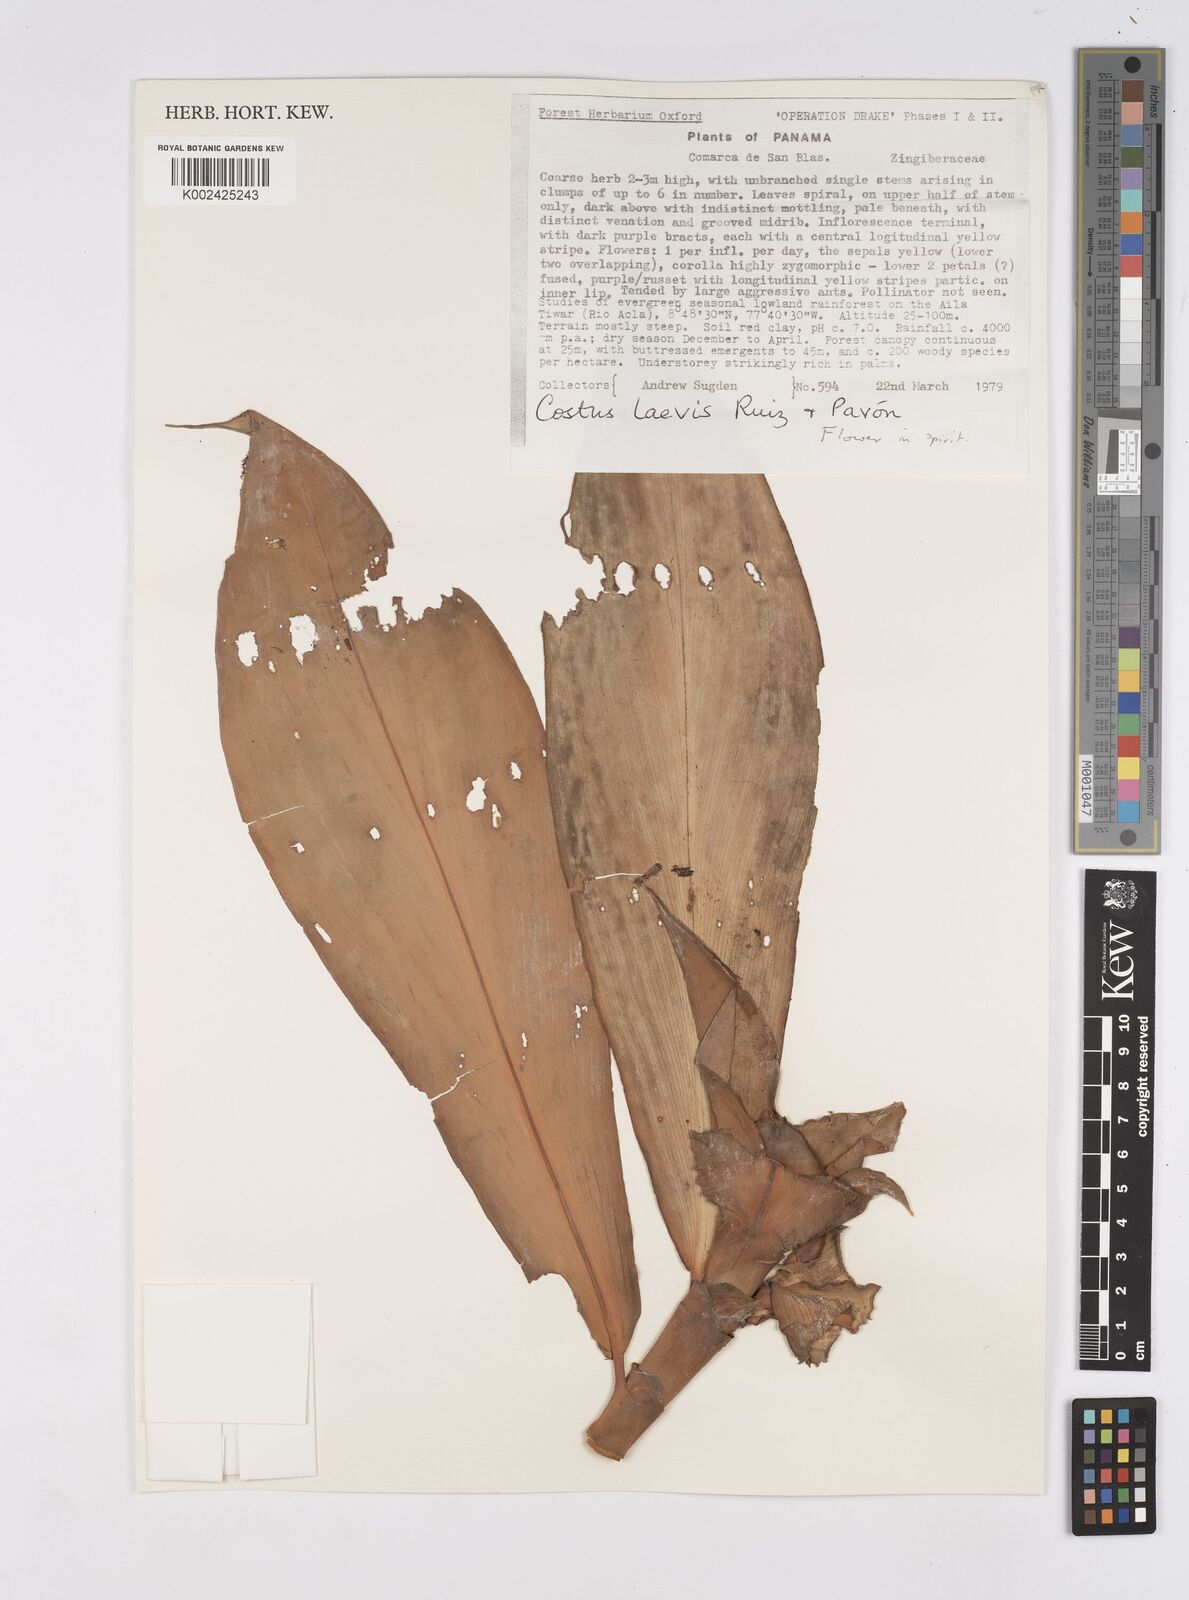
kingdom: Plantae
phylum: Tracheophyta
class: Liliopsida
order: Zingiberales
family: Costaceae
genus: Costus
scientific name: Costus laevis
